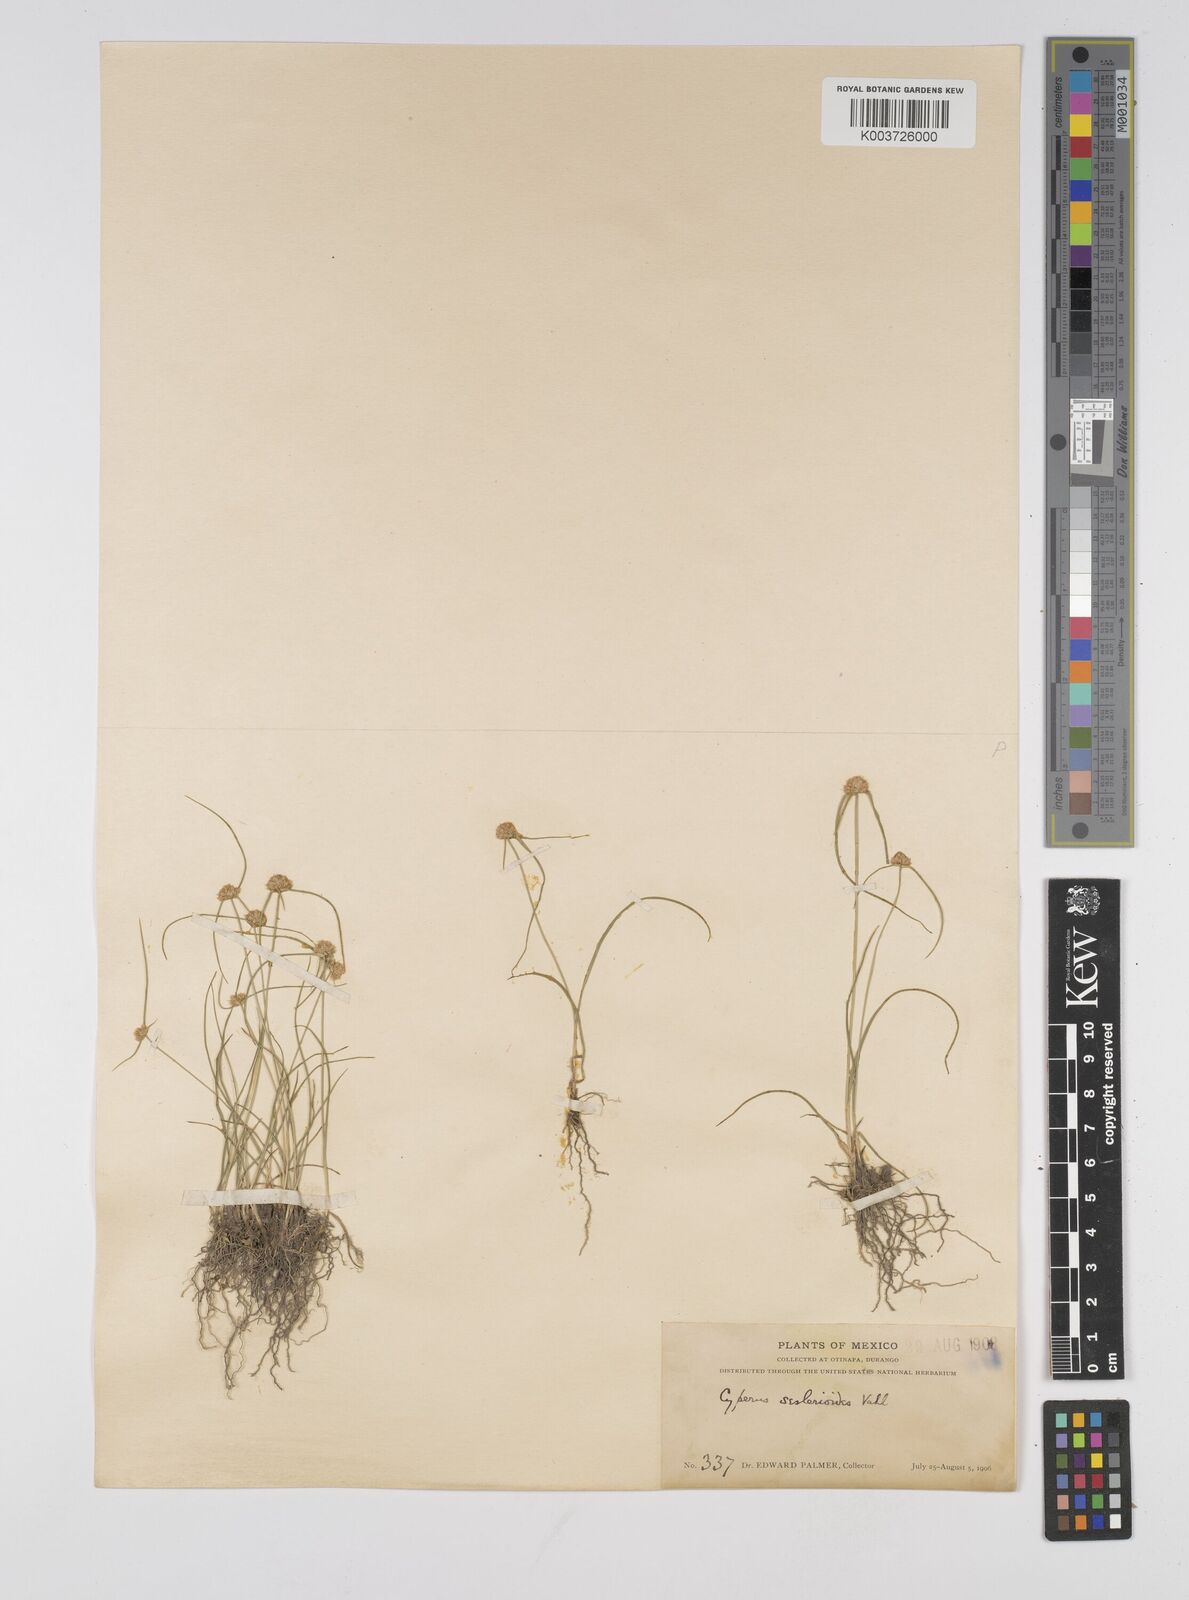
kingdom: Plantae
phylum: Tracheophyta
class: Liliopsida
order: Poales
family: Cyperaceae
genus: Cyperus
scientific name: Cyperus seslerioides
